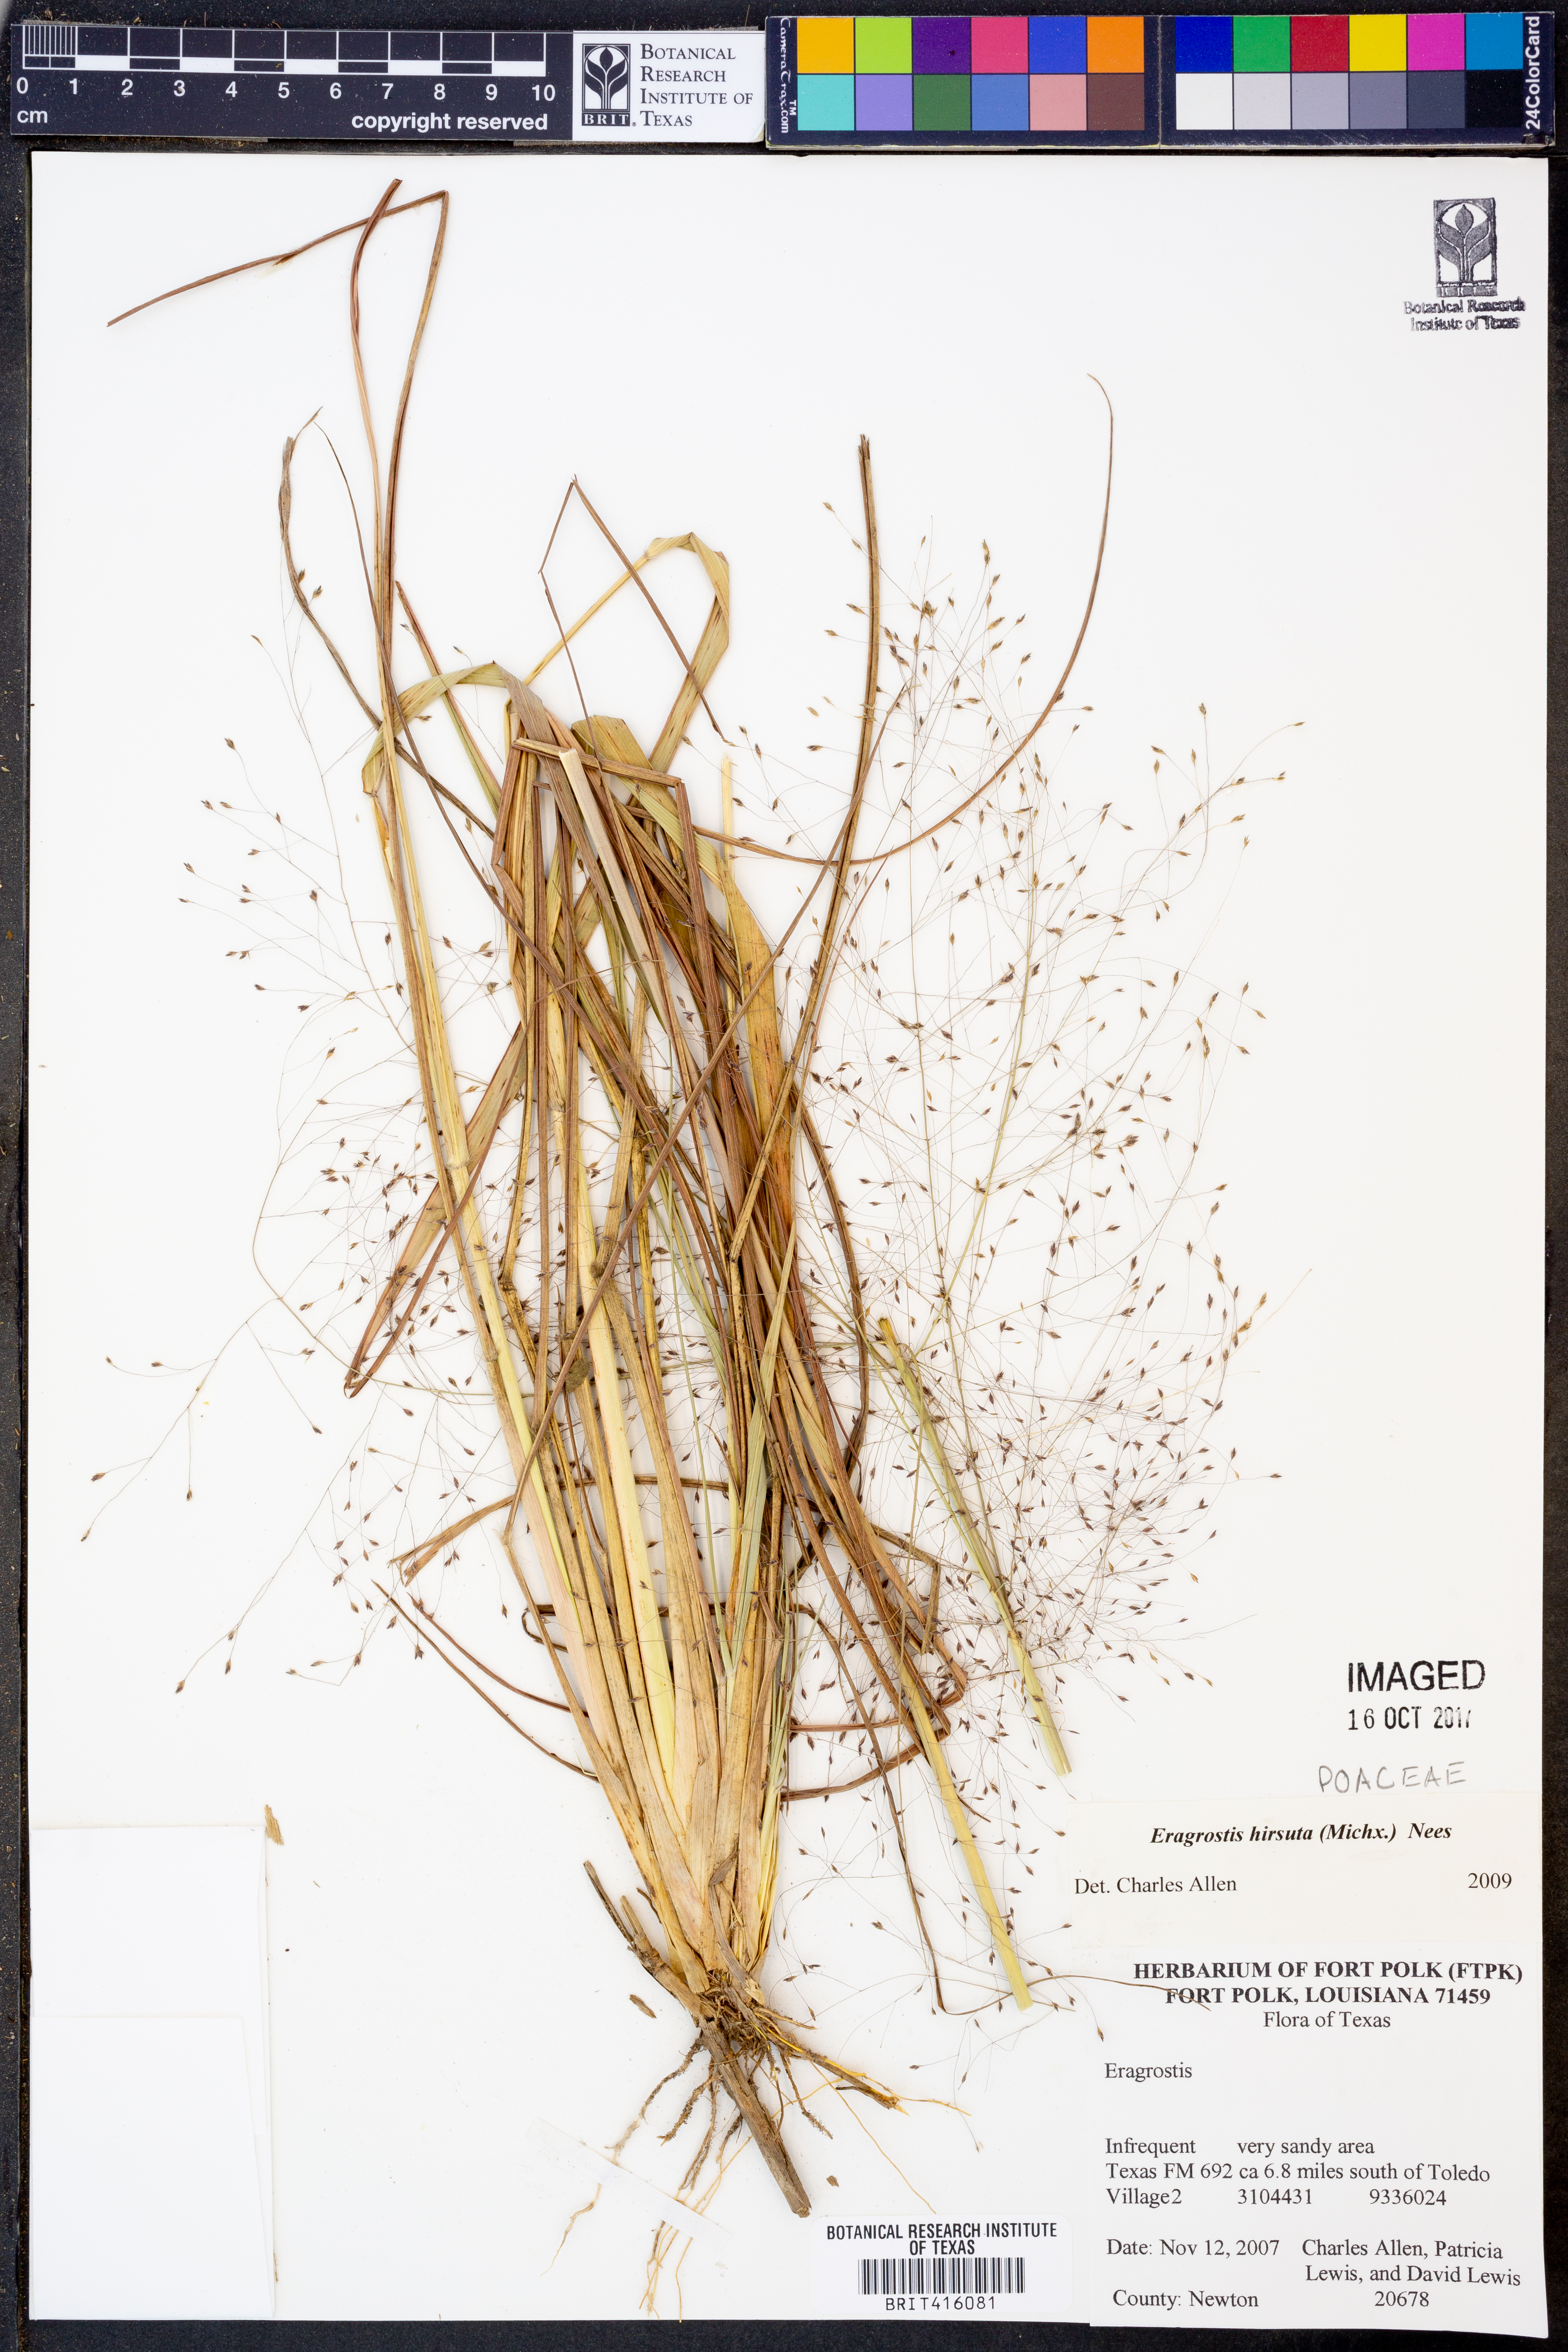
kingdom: Plantae
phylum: Tracheophyta
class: Liliopsida
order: Poales
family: Poaceae
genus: Eragrostis
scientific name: Eragrostis hirsuta
